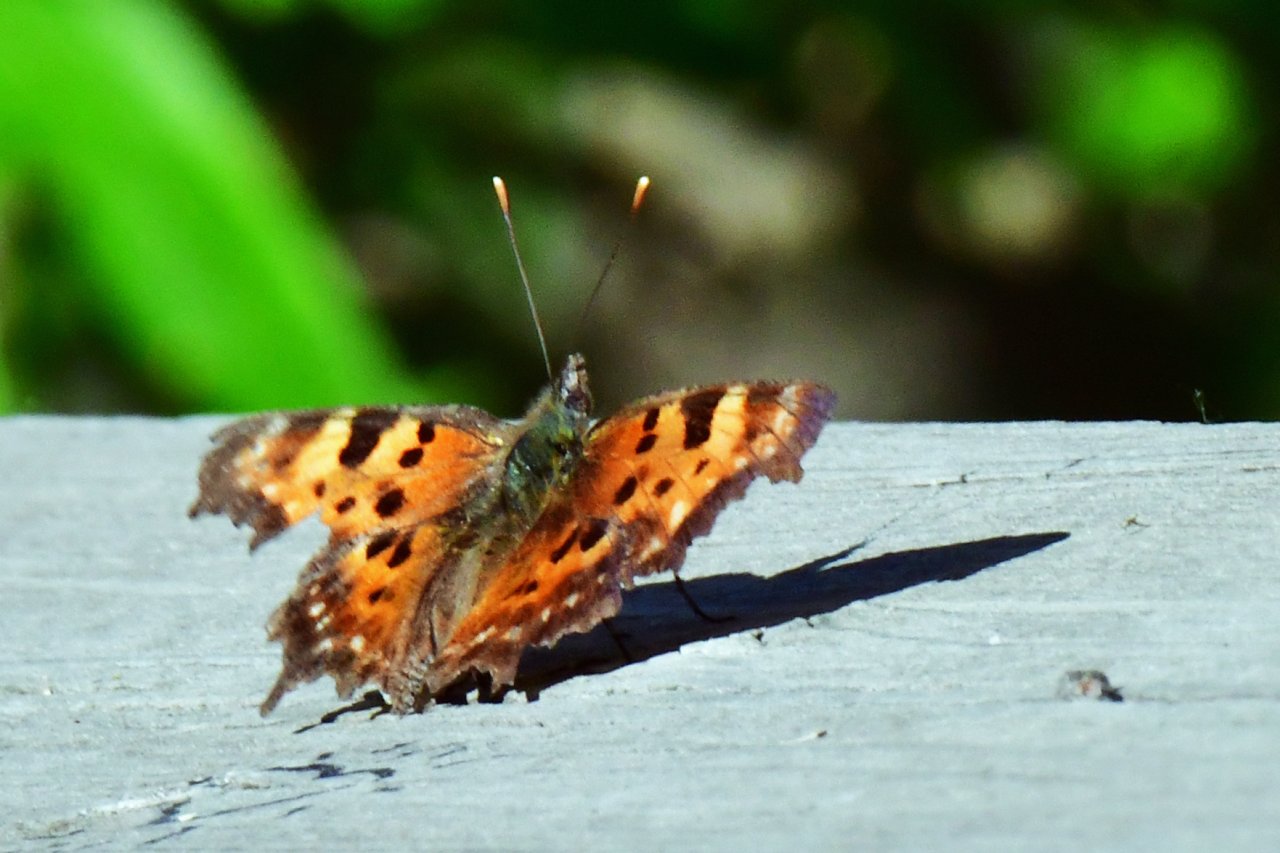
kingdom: Animalia
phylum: Arthropoda
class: Insecta
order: Lepidoptera
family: Nymphalidae
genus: Polygonia
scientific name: Polygonia progne
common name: Gray Comma
